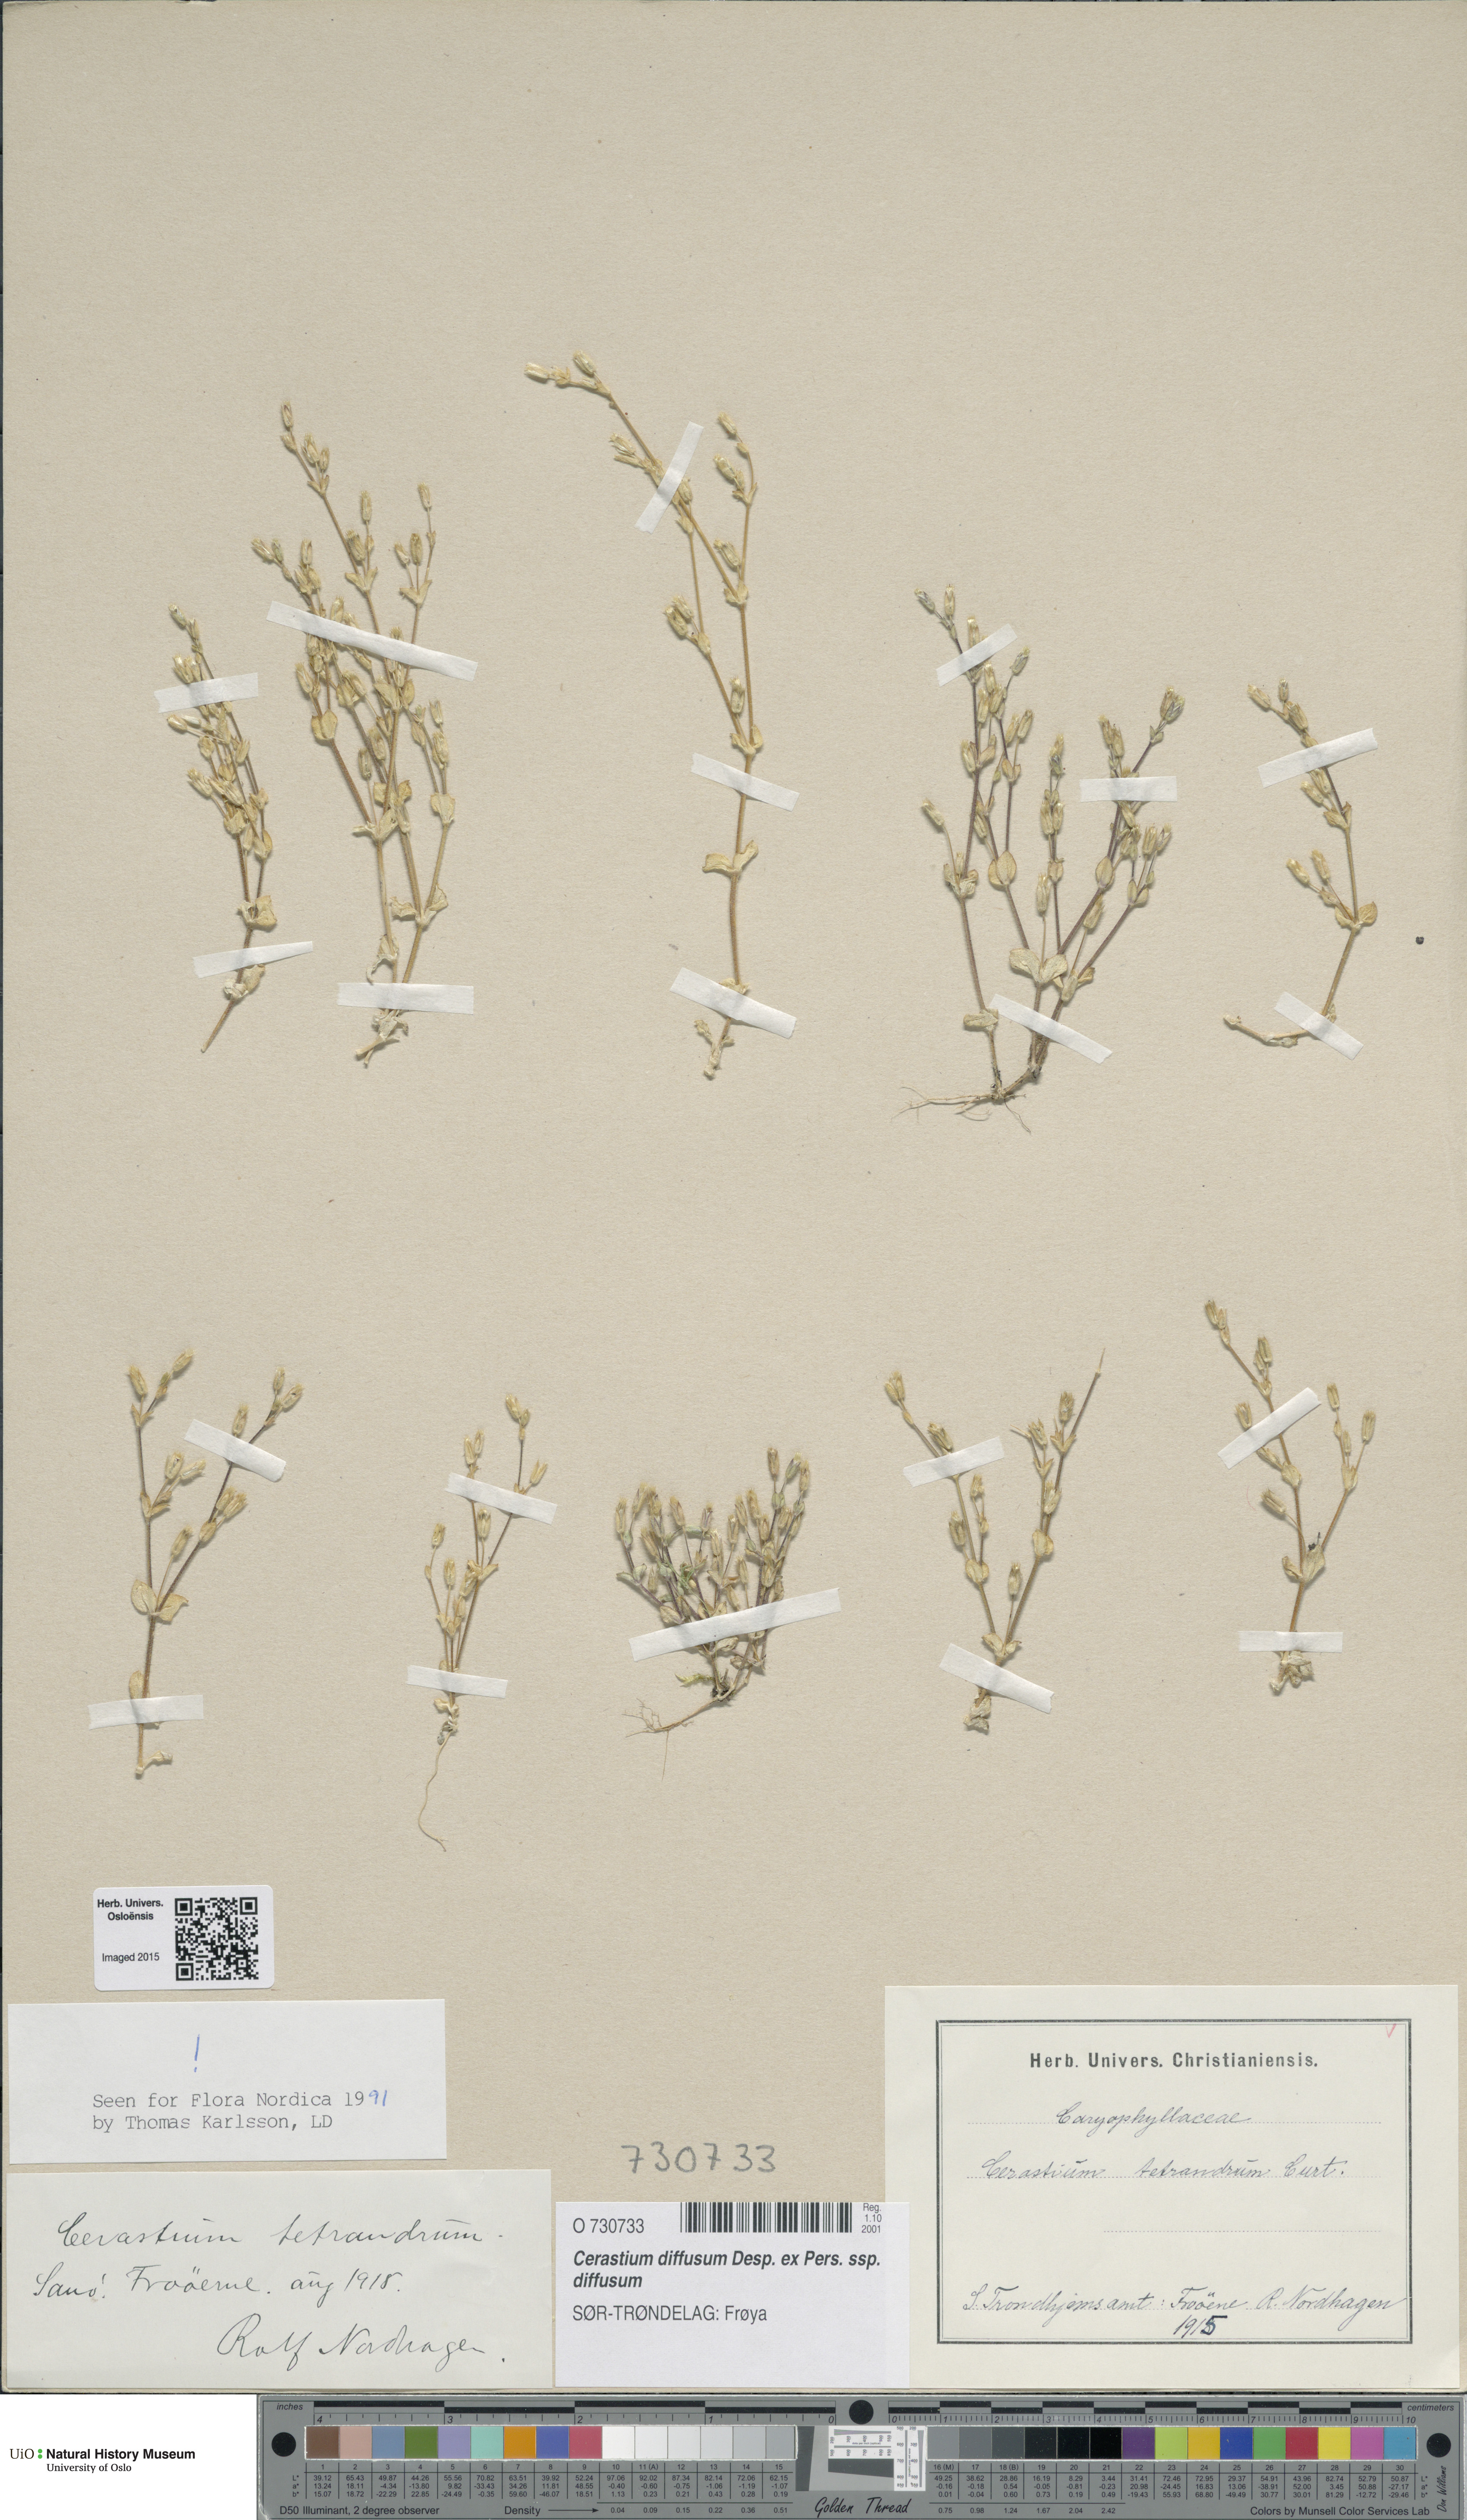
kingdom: Plantae
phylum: Tracheophyta
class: Magnoliopsida
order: Caryophyllales
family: Caryophyllaceae
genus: Cerastium
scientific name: Cerastium diffusum
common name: Fourstamen chickweed
